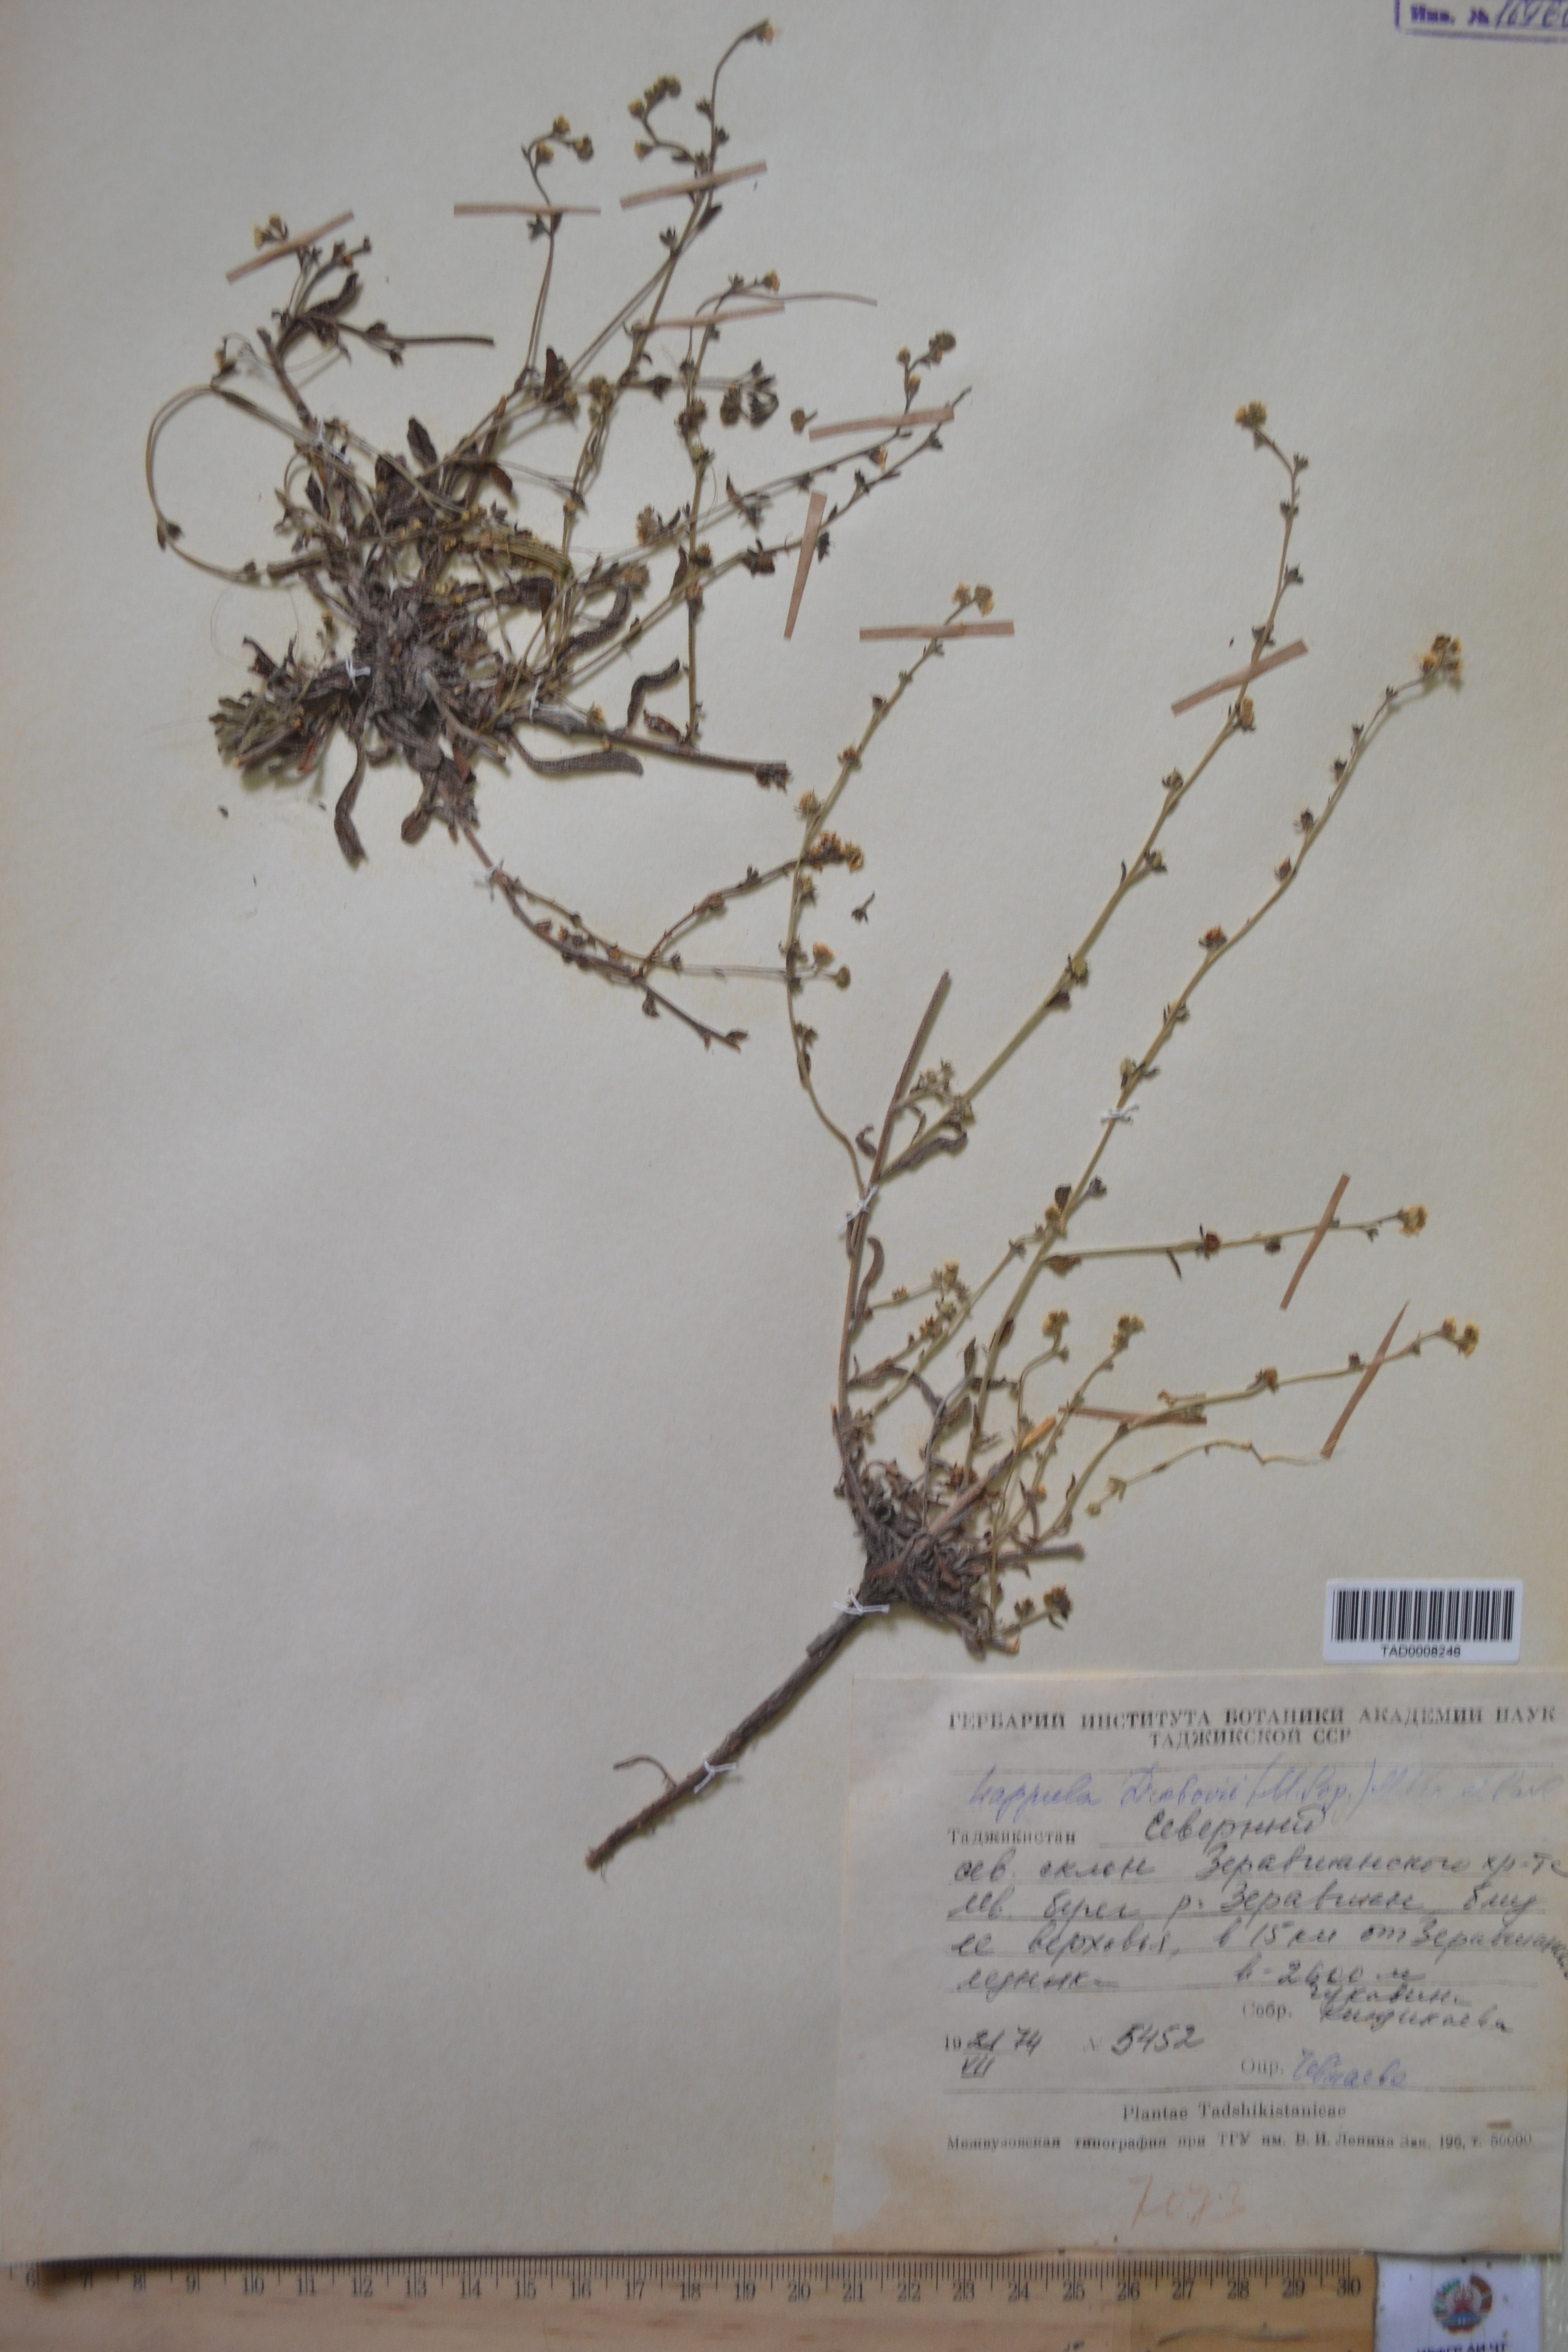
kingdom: Plantae
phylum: Tracheophyta
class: Magnoliopsida
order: Boraginales
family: Boraginaceae
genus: Rochelia
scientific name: Rochelia drobovii
